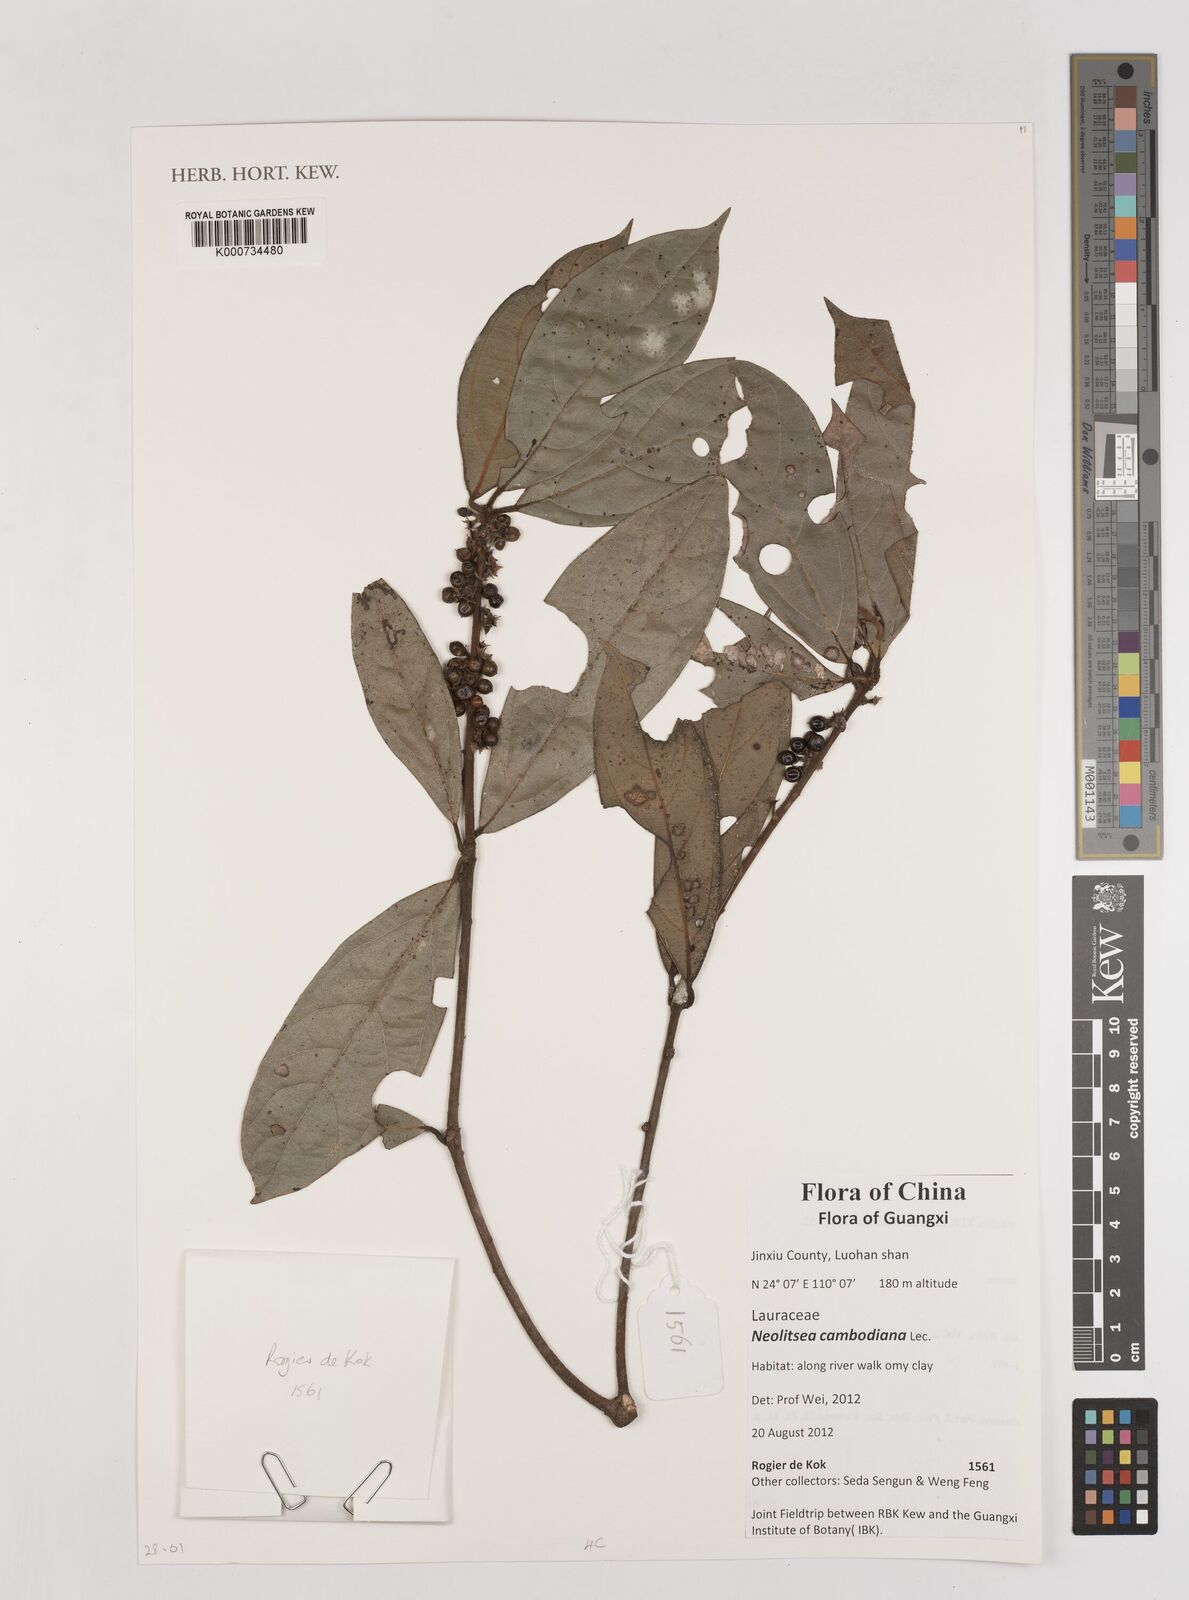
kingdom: Plantae
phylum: Tracheophyta
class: Magnoliopsida
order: Laurales
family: Lauraceae
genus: Neolitsea
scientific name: Neolitsea cambodiana
